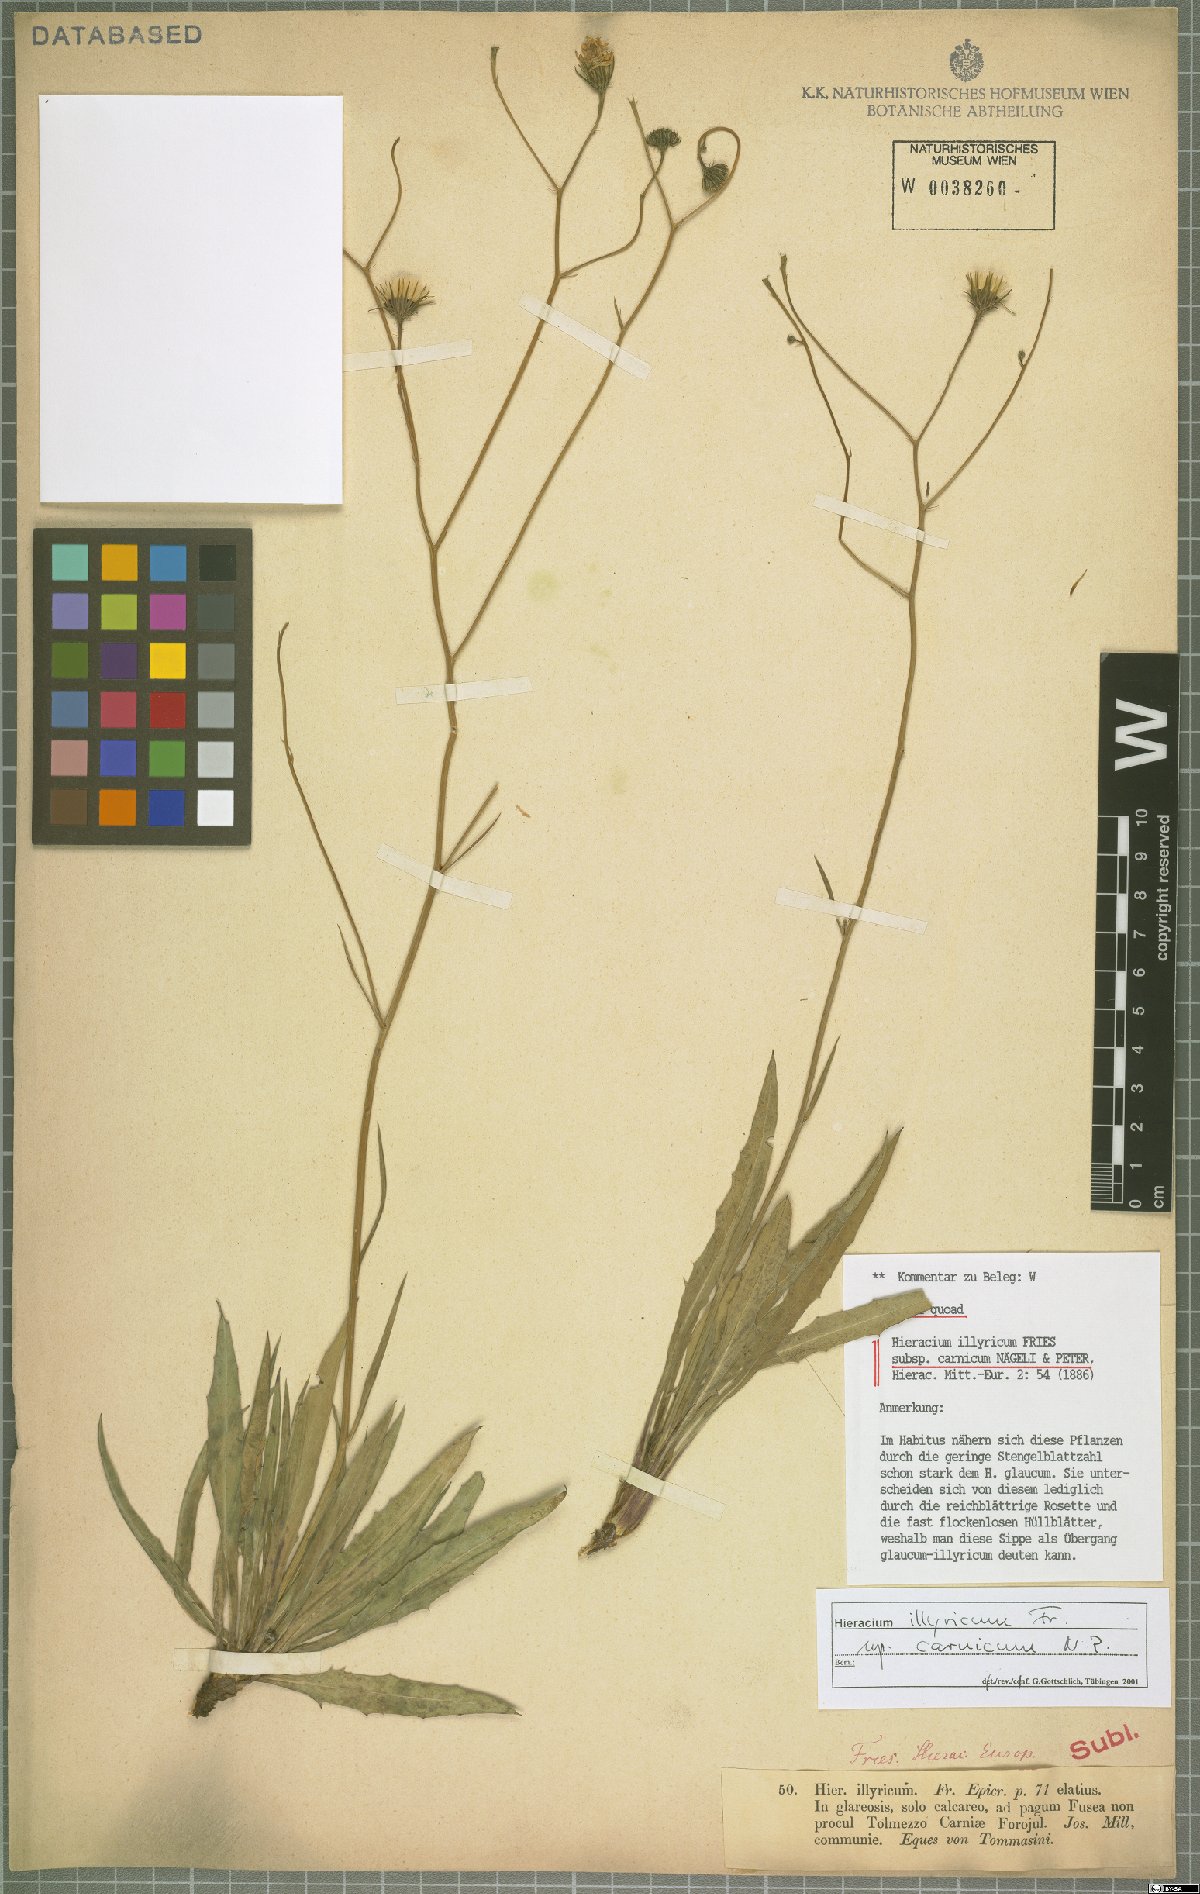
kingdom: Plantae
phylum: Tracheophyta
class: Magnoliopsida
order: Asterales
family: Asteraceae
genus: Hieracium
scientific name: Hieracium calcareum
